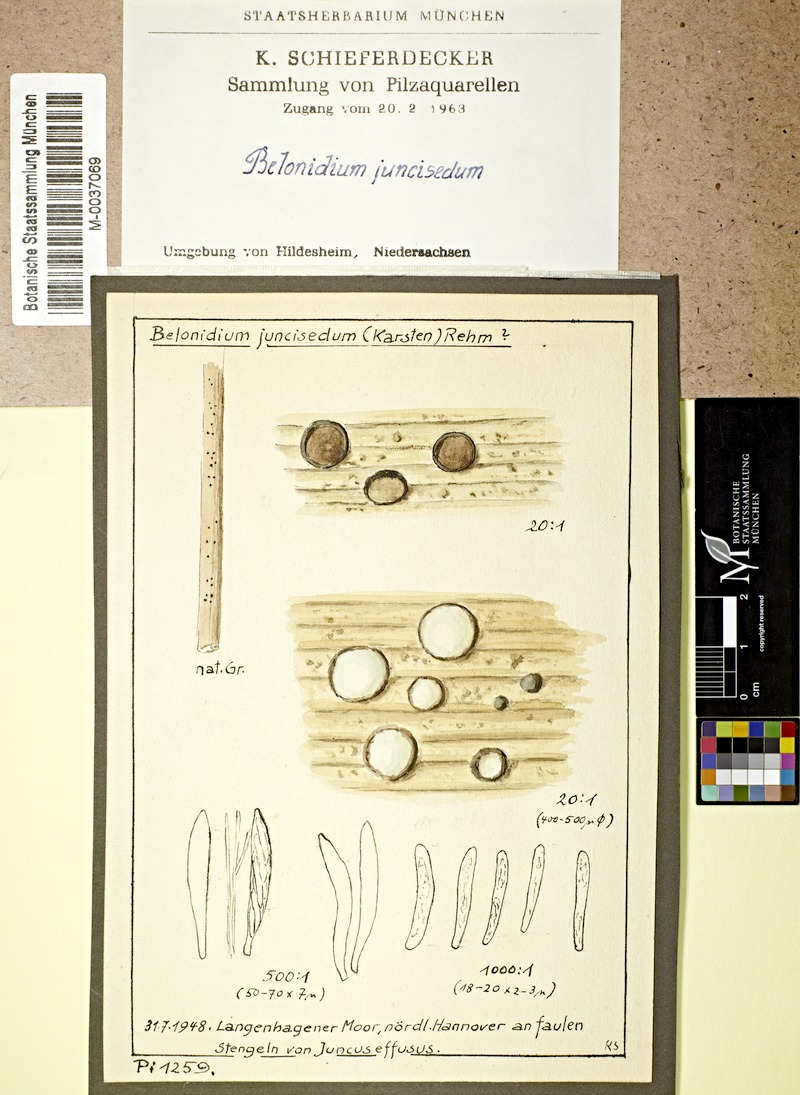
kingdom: Plantae
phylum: Tracheophyta
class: Liliopsida
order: Poales
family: Juncaceae
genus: Juncus
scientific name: Juncus effusus
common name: Soft rush
